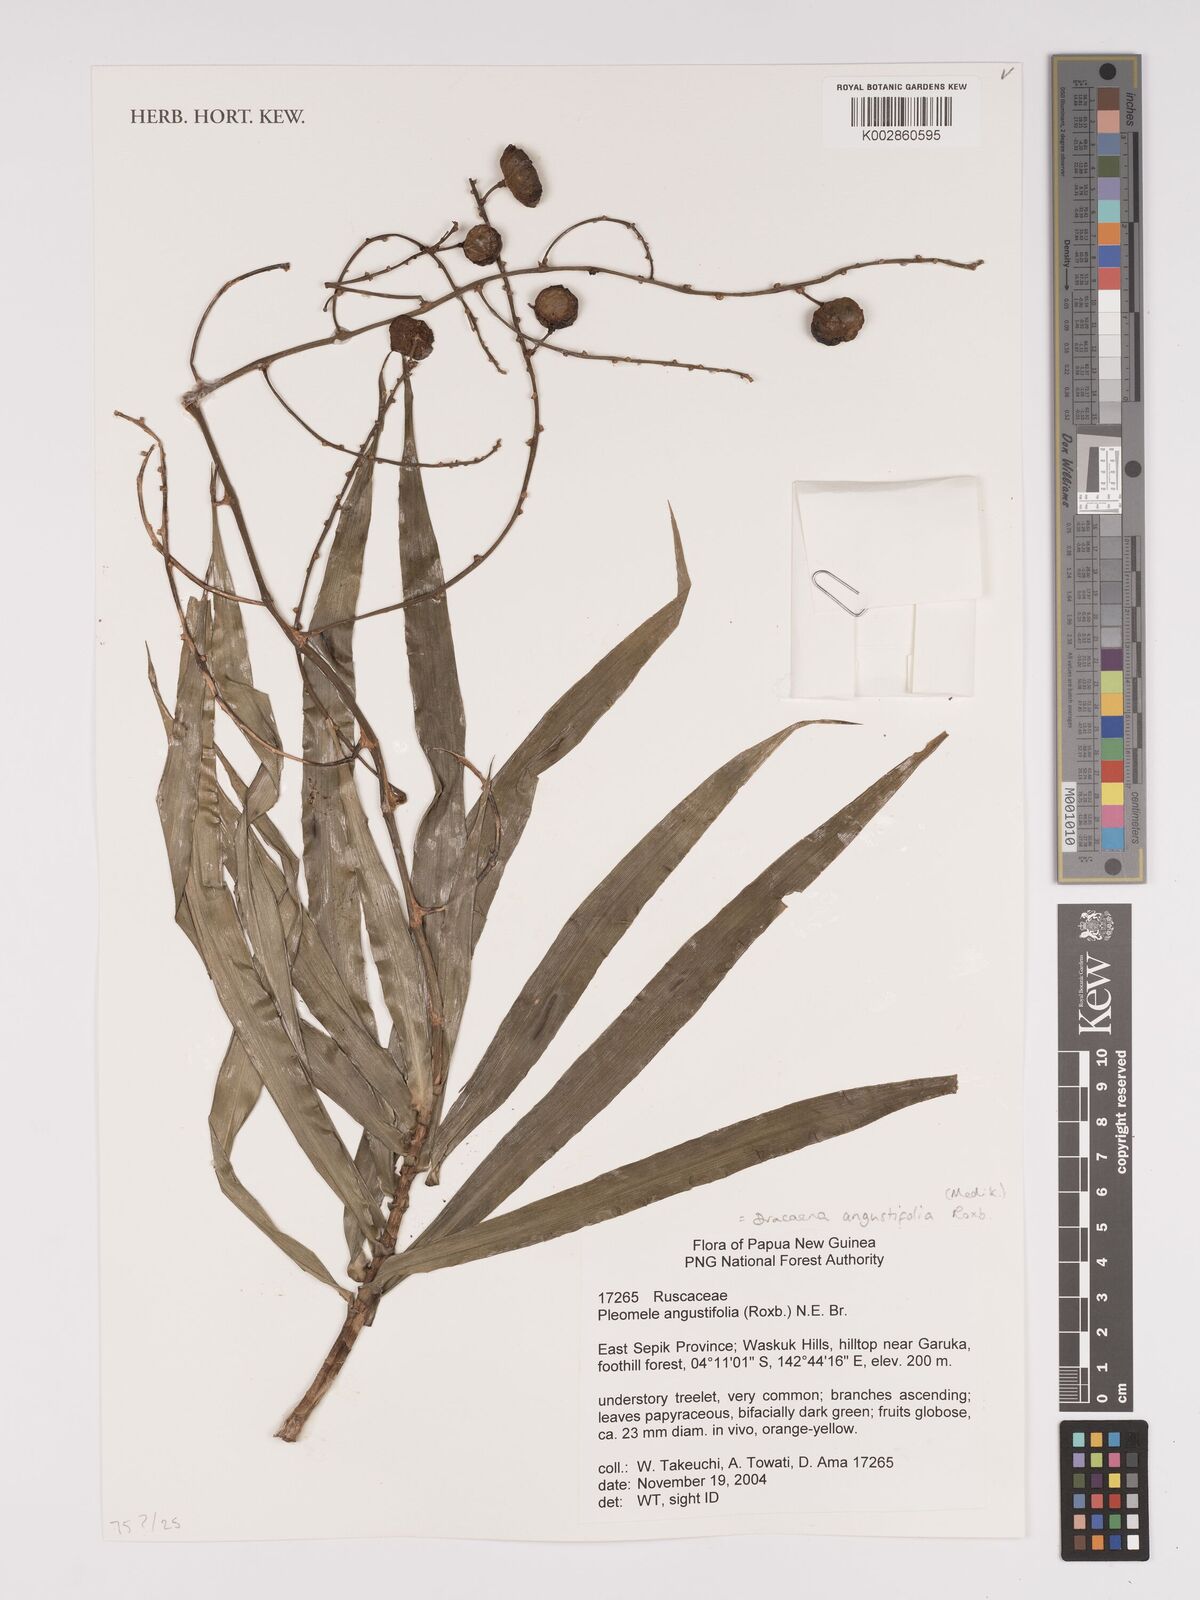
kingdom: Plantae
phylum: Tracheophyta
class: Liliopsida
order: Asparagales
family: Asparagaceae
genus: Dracaena
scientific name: Dracaena angustifolia
